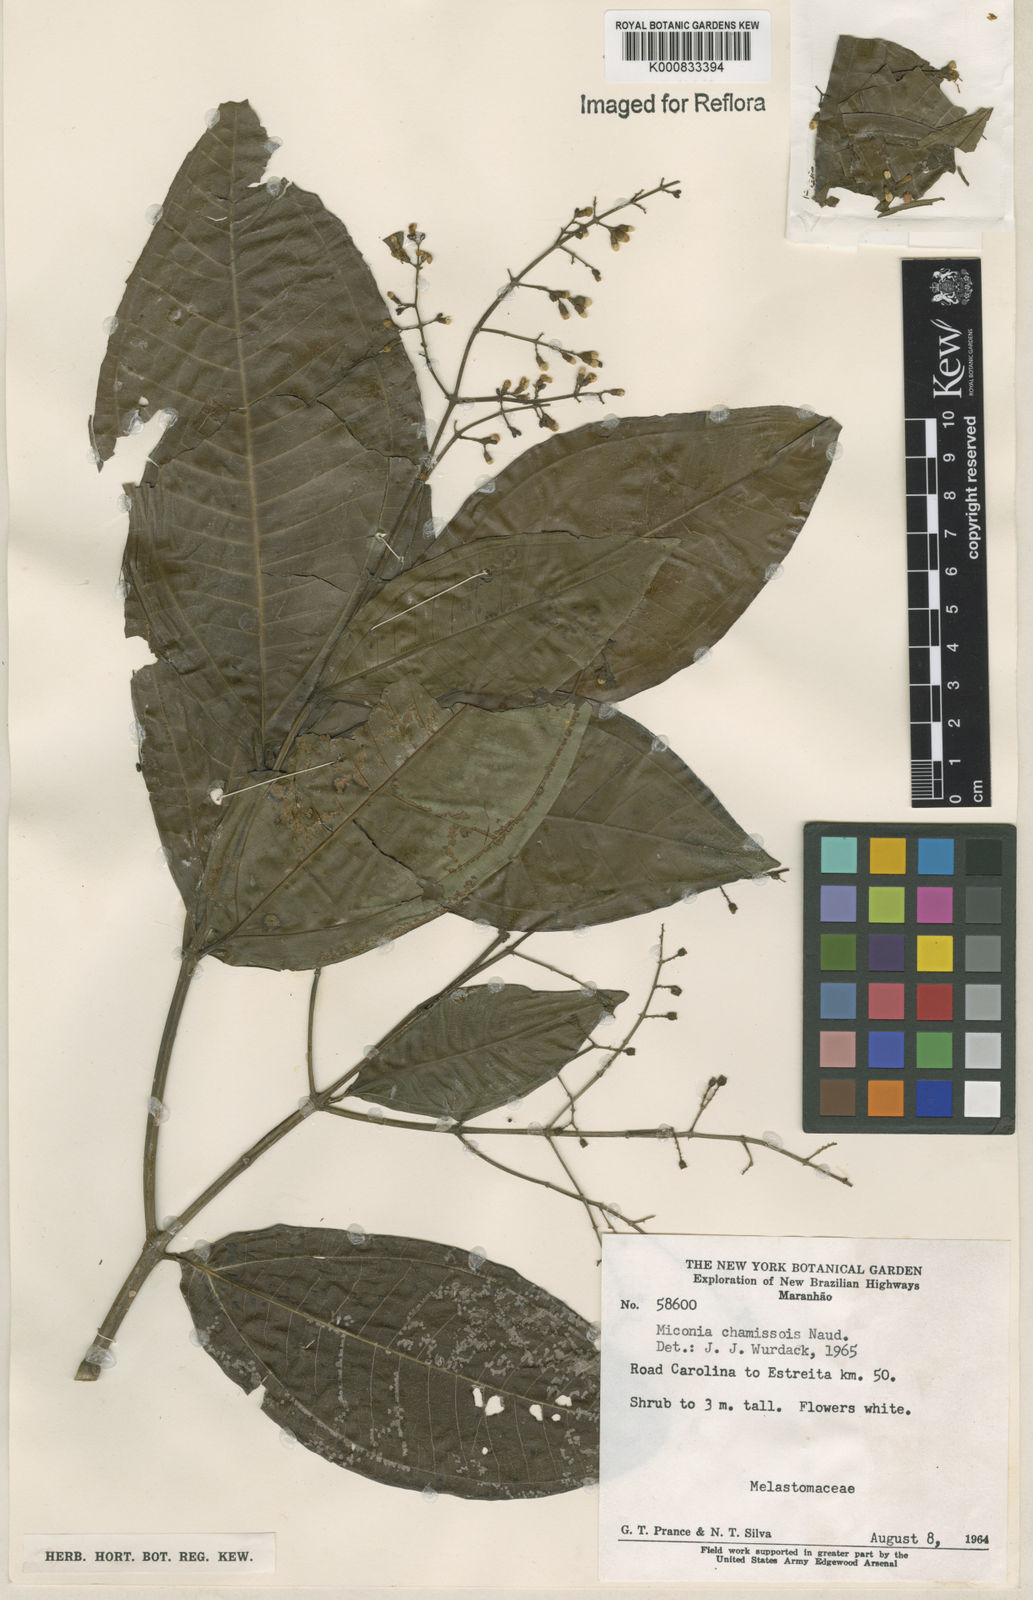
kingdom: Plantae
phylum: Tracheophyta
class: Magnoliopsida
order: Myrtales
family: Melastomataceae
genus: Miconia
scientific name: Miconia chamissois
